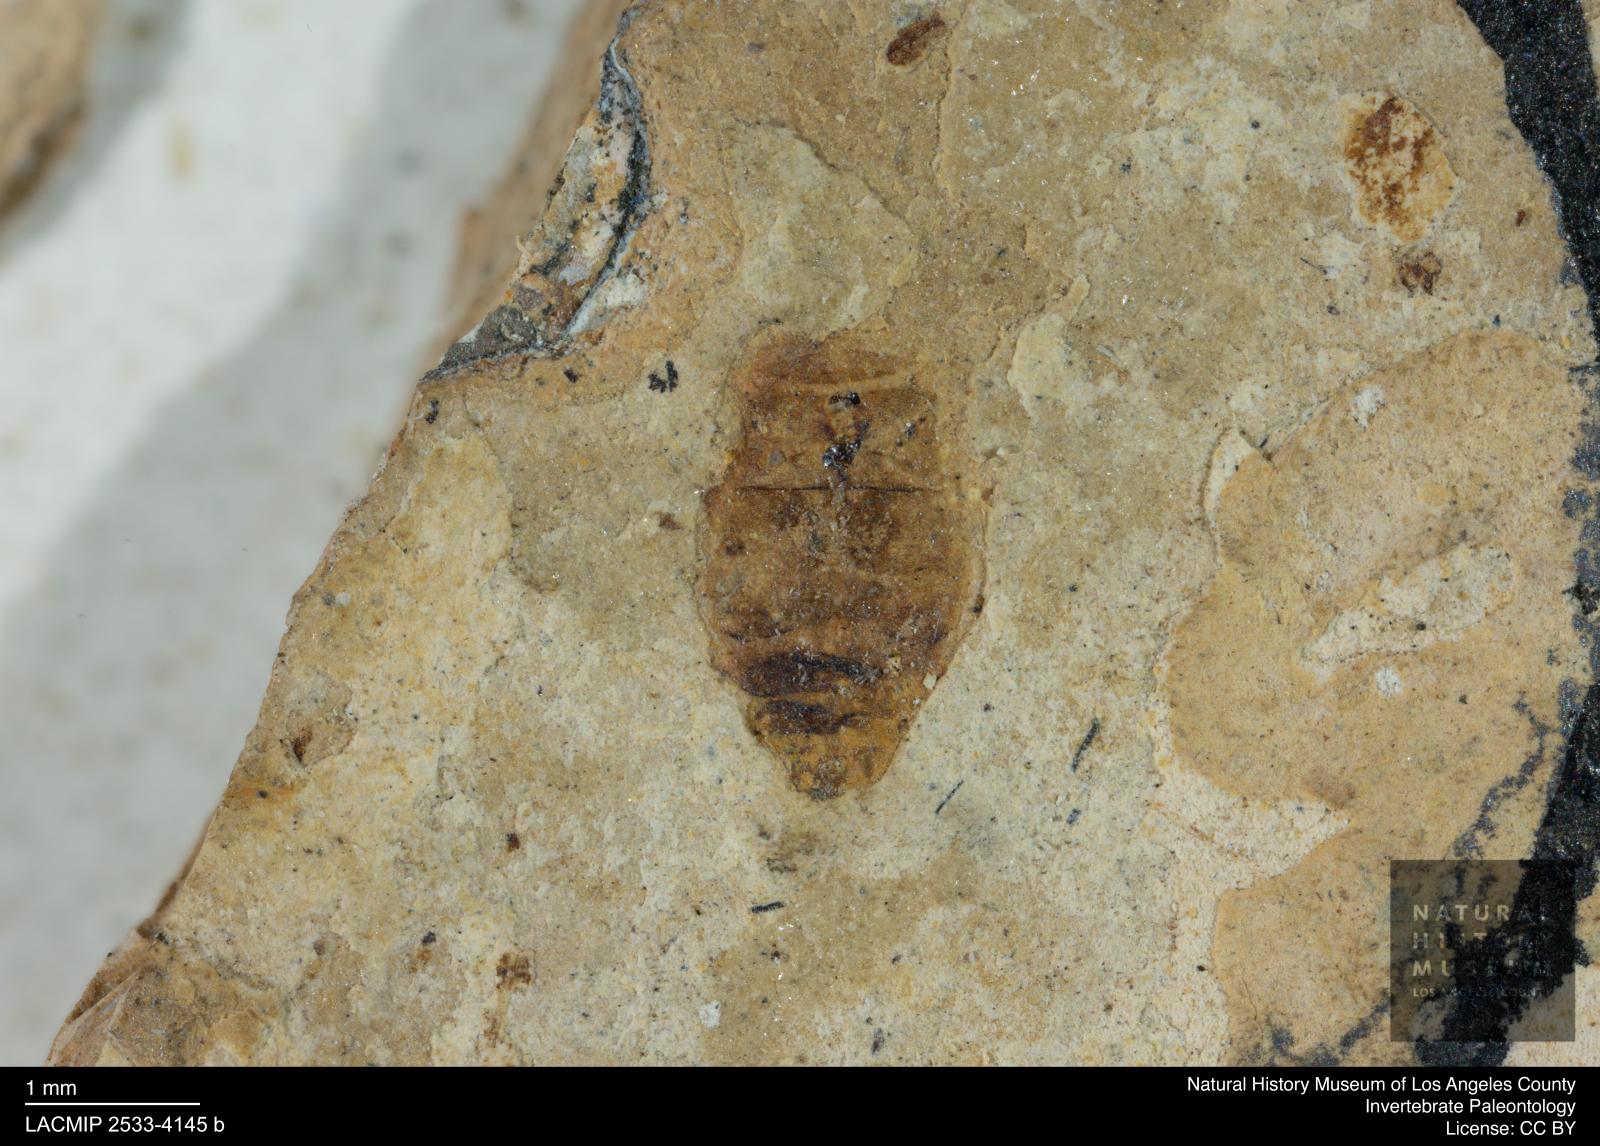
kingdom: Animalia
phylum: Arthropoda
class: Insecta
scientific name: Insecta
